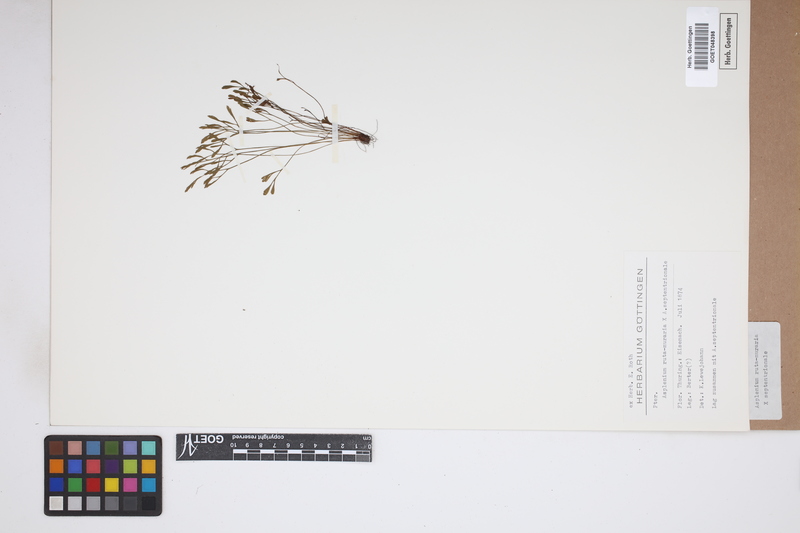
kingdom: Plantae
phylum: Tracheophyta
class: Polypodiopsida
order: Polypodiales
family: Aspleniaceae
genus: Asplenium
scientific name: Asplenium
